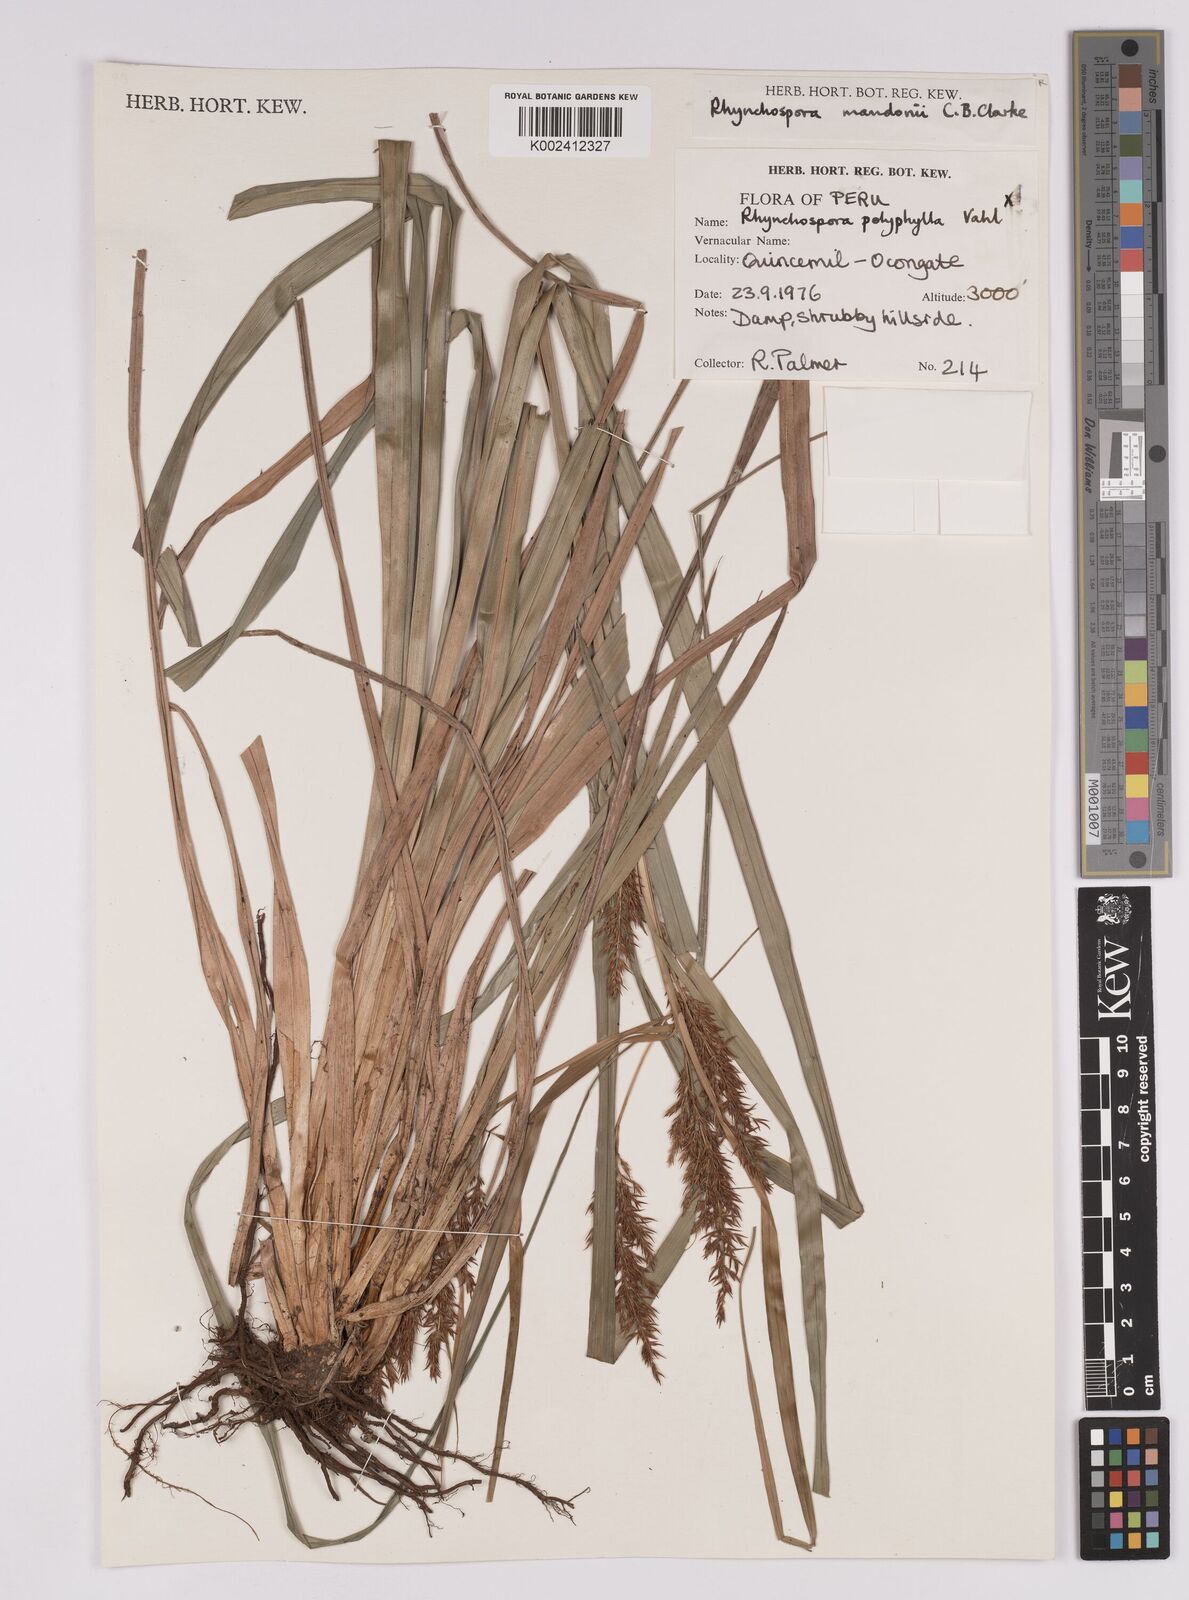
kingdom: Plantae
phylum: Tracheophyta
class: Liliopsida
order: Poales
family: Cyperaceae
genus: Rhynchospora
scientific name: Rhynchospora mandonii
